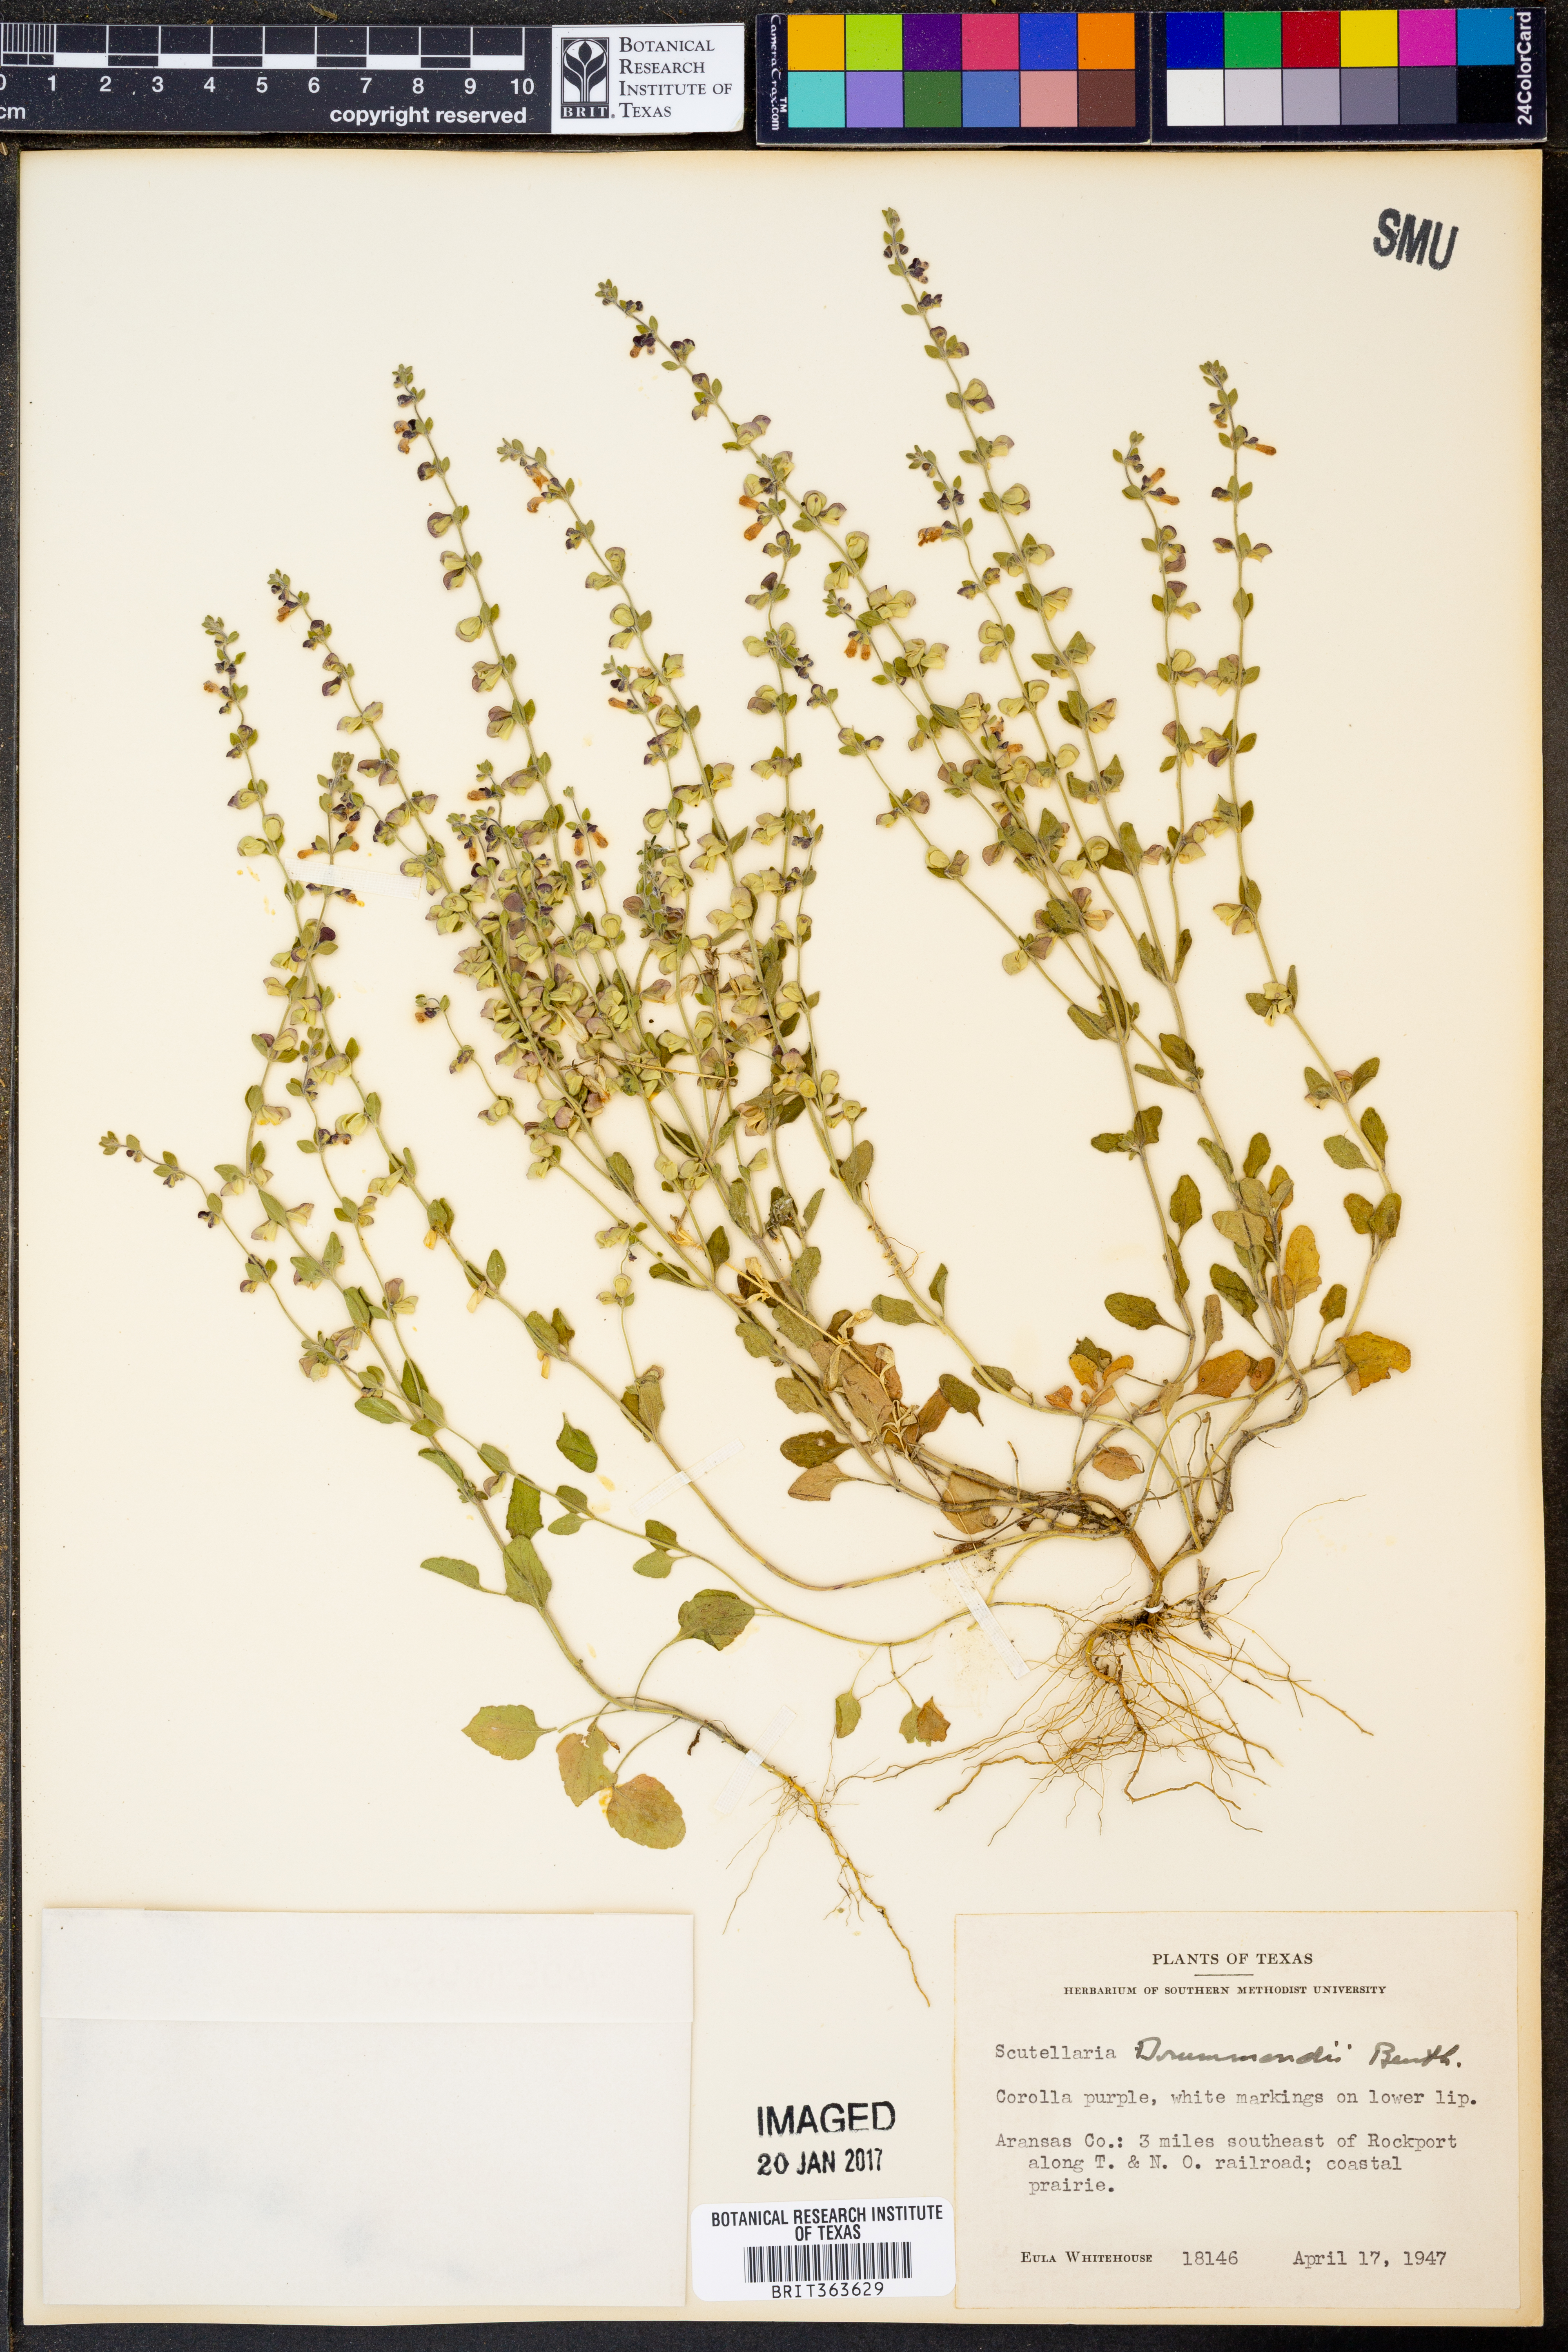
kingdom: Plantae
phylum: Tracheophyta
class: Magnoliopsida
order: Lamiales
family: Lamiaceae
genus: Scutellaria
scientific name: Scutellaria drummondii
